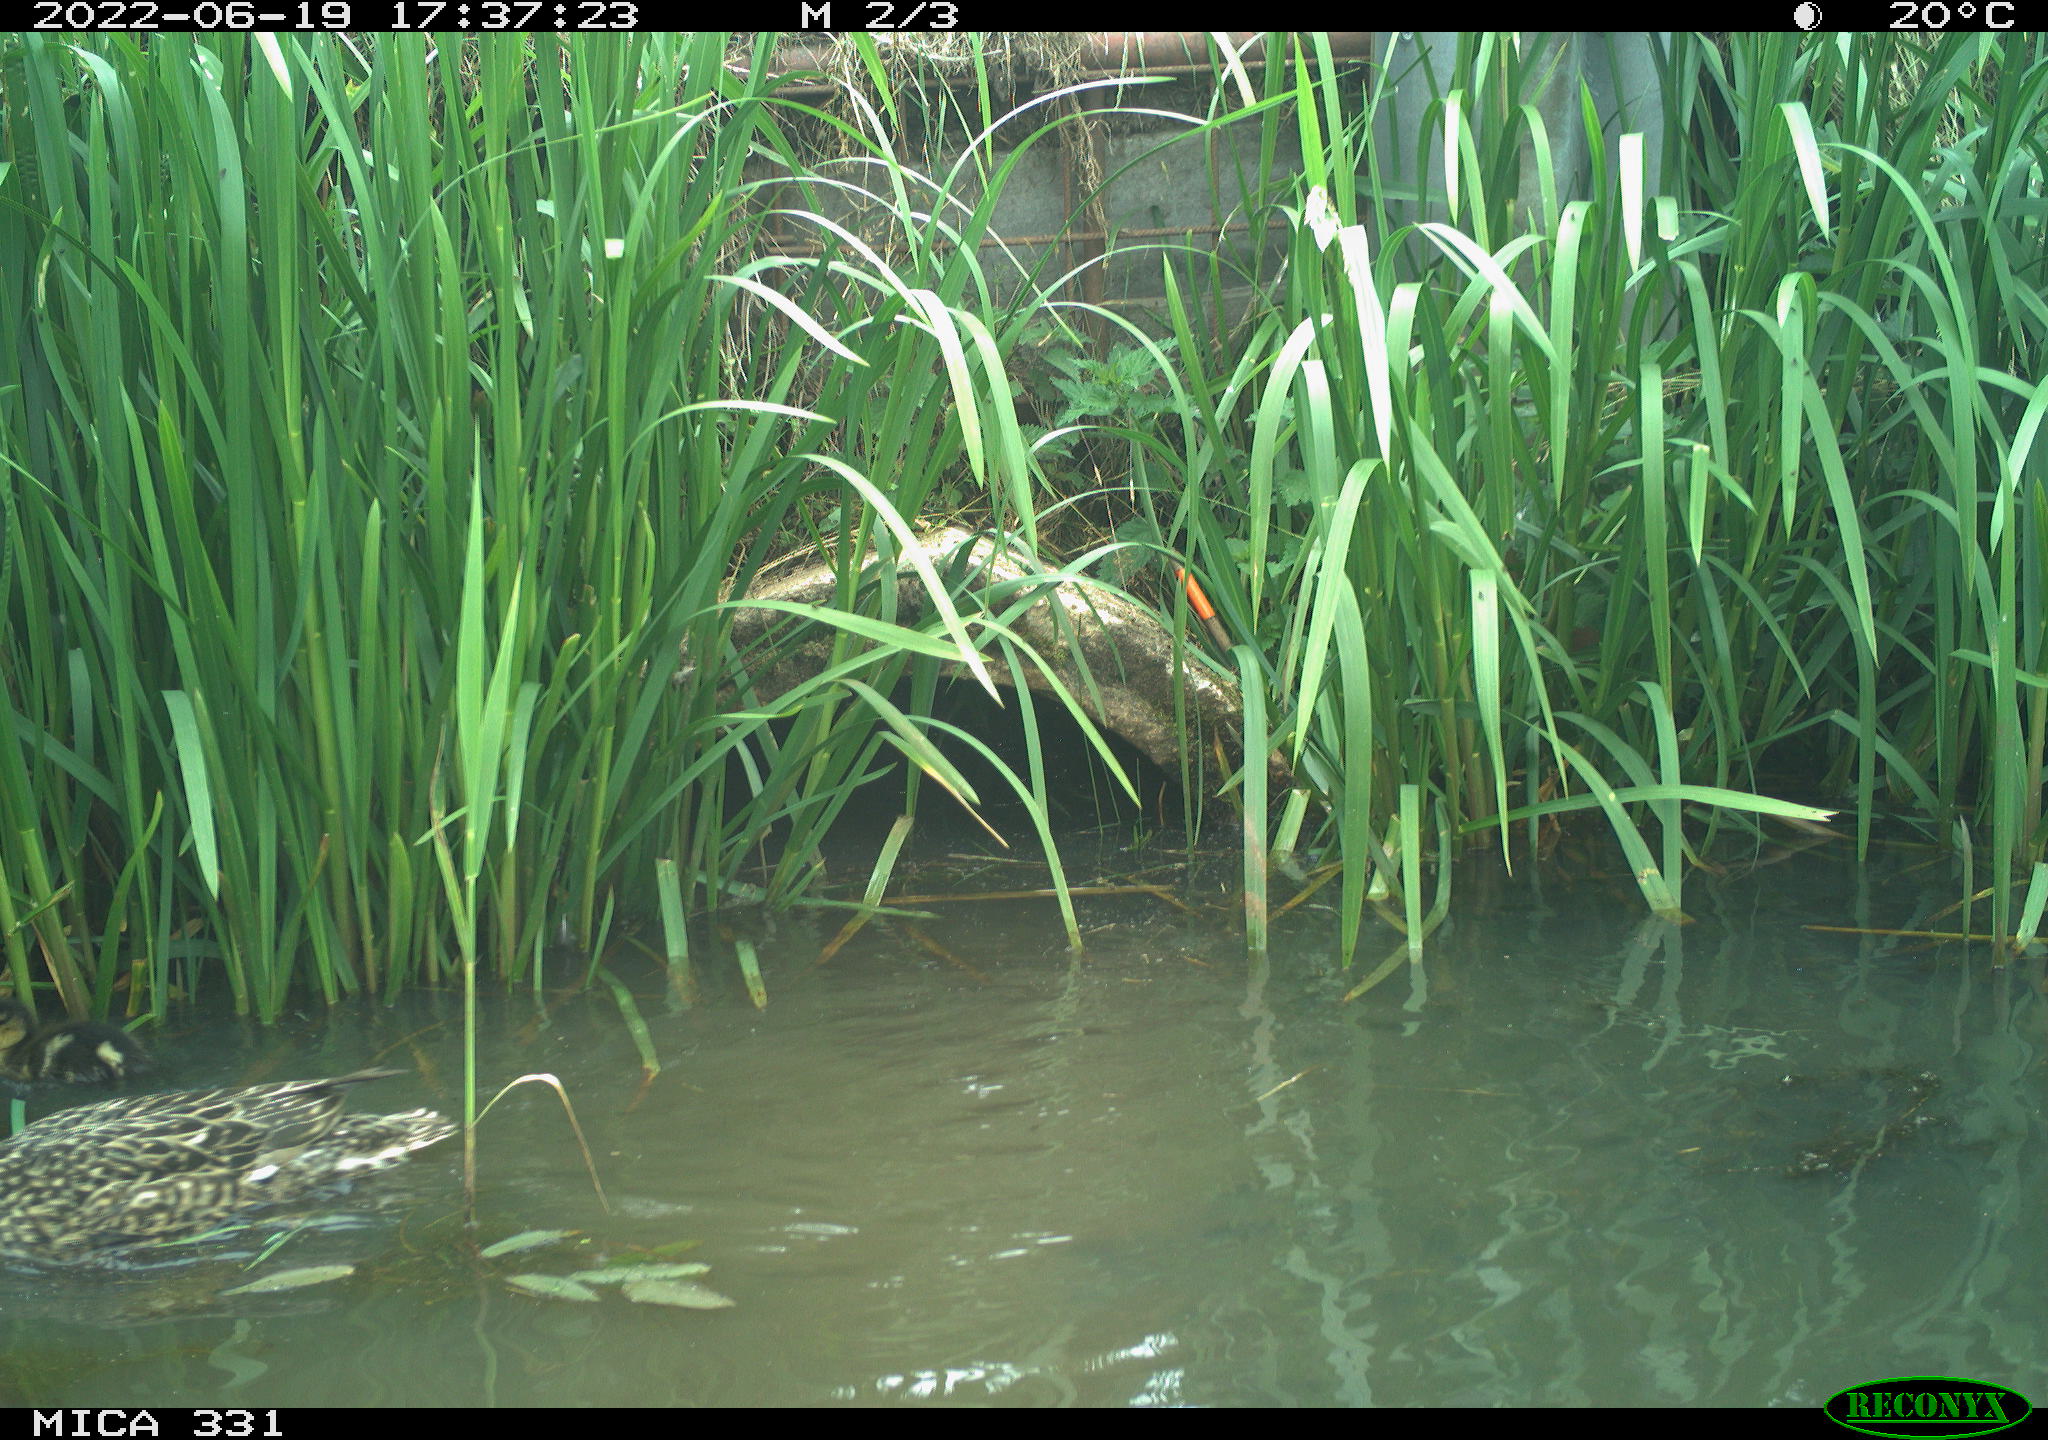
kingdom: Animalia
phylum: Chordata
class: Aves
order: Anseriformes
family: Anatidae
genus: Anas
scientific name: Anas platyrhynchos
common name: Mallard
